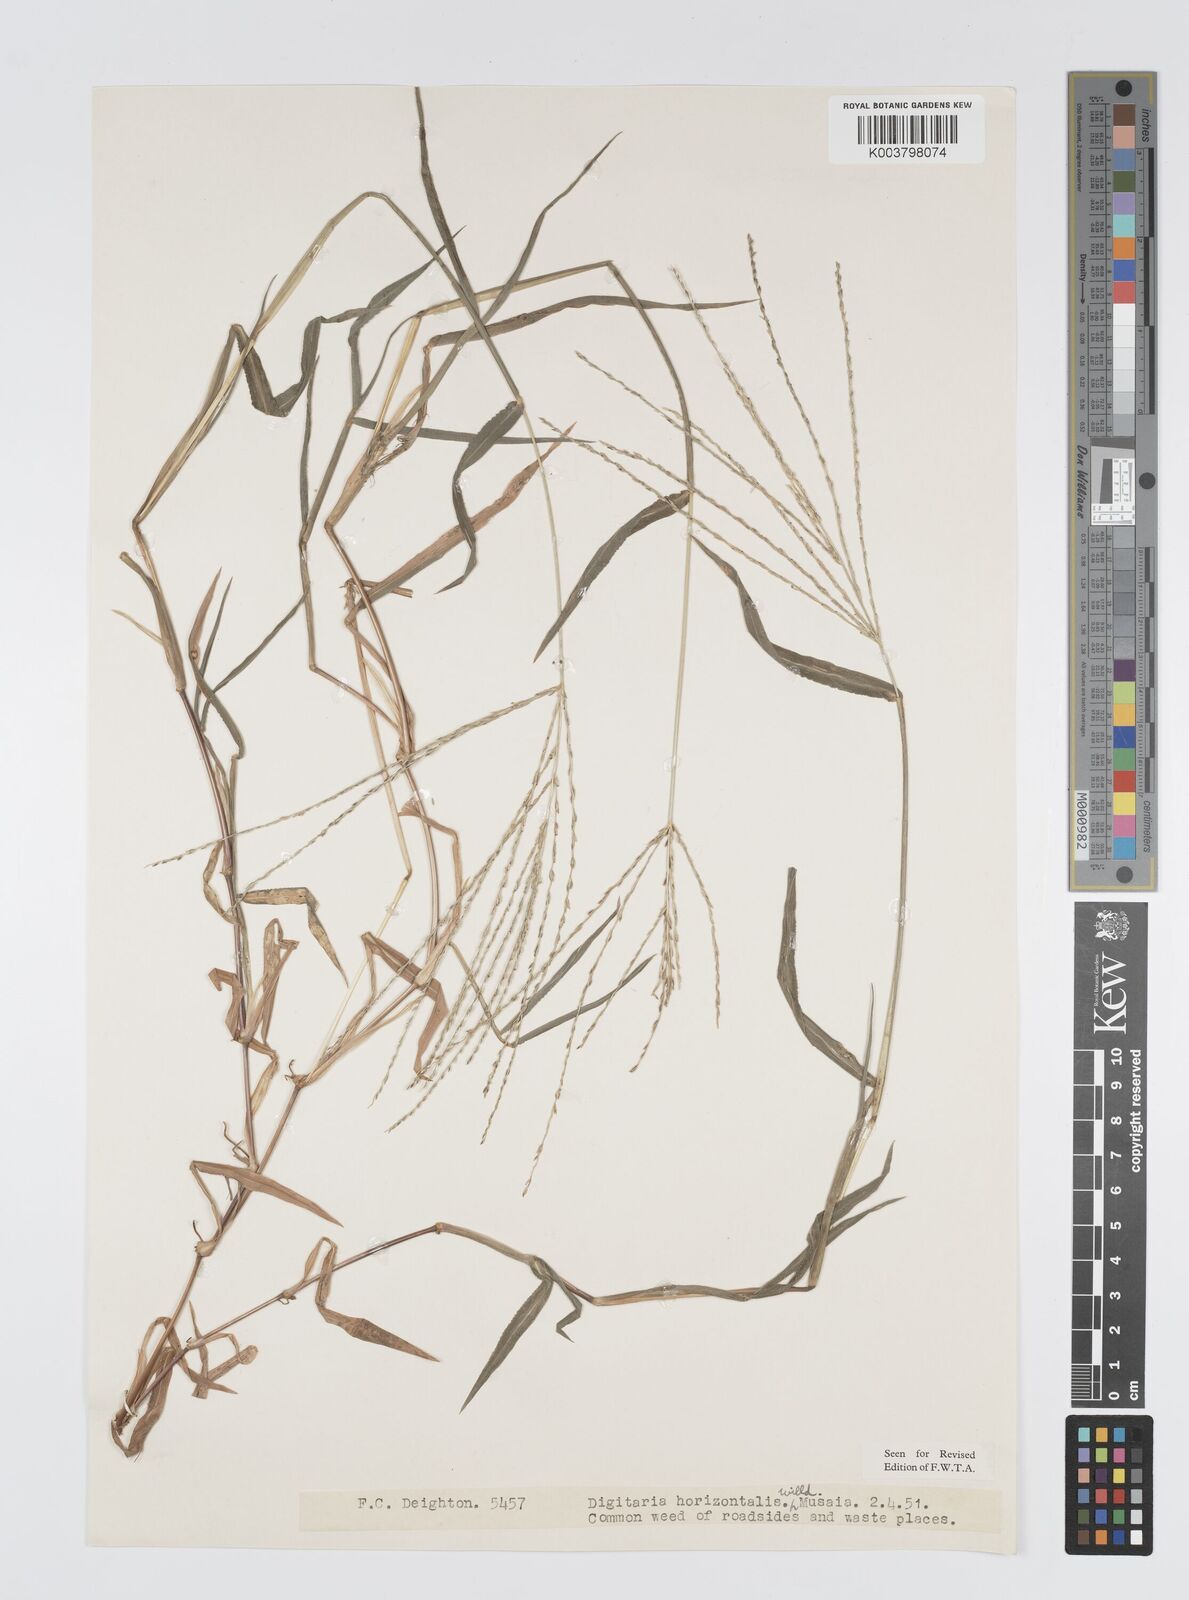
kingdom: Plantae
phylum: Tracheophyta
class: Liliopsida
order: Poales
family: Poaceae
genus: Digitaria
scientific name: Digitaria horizontalis
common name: Jamaican crabgrass
